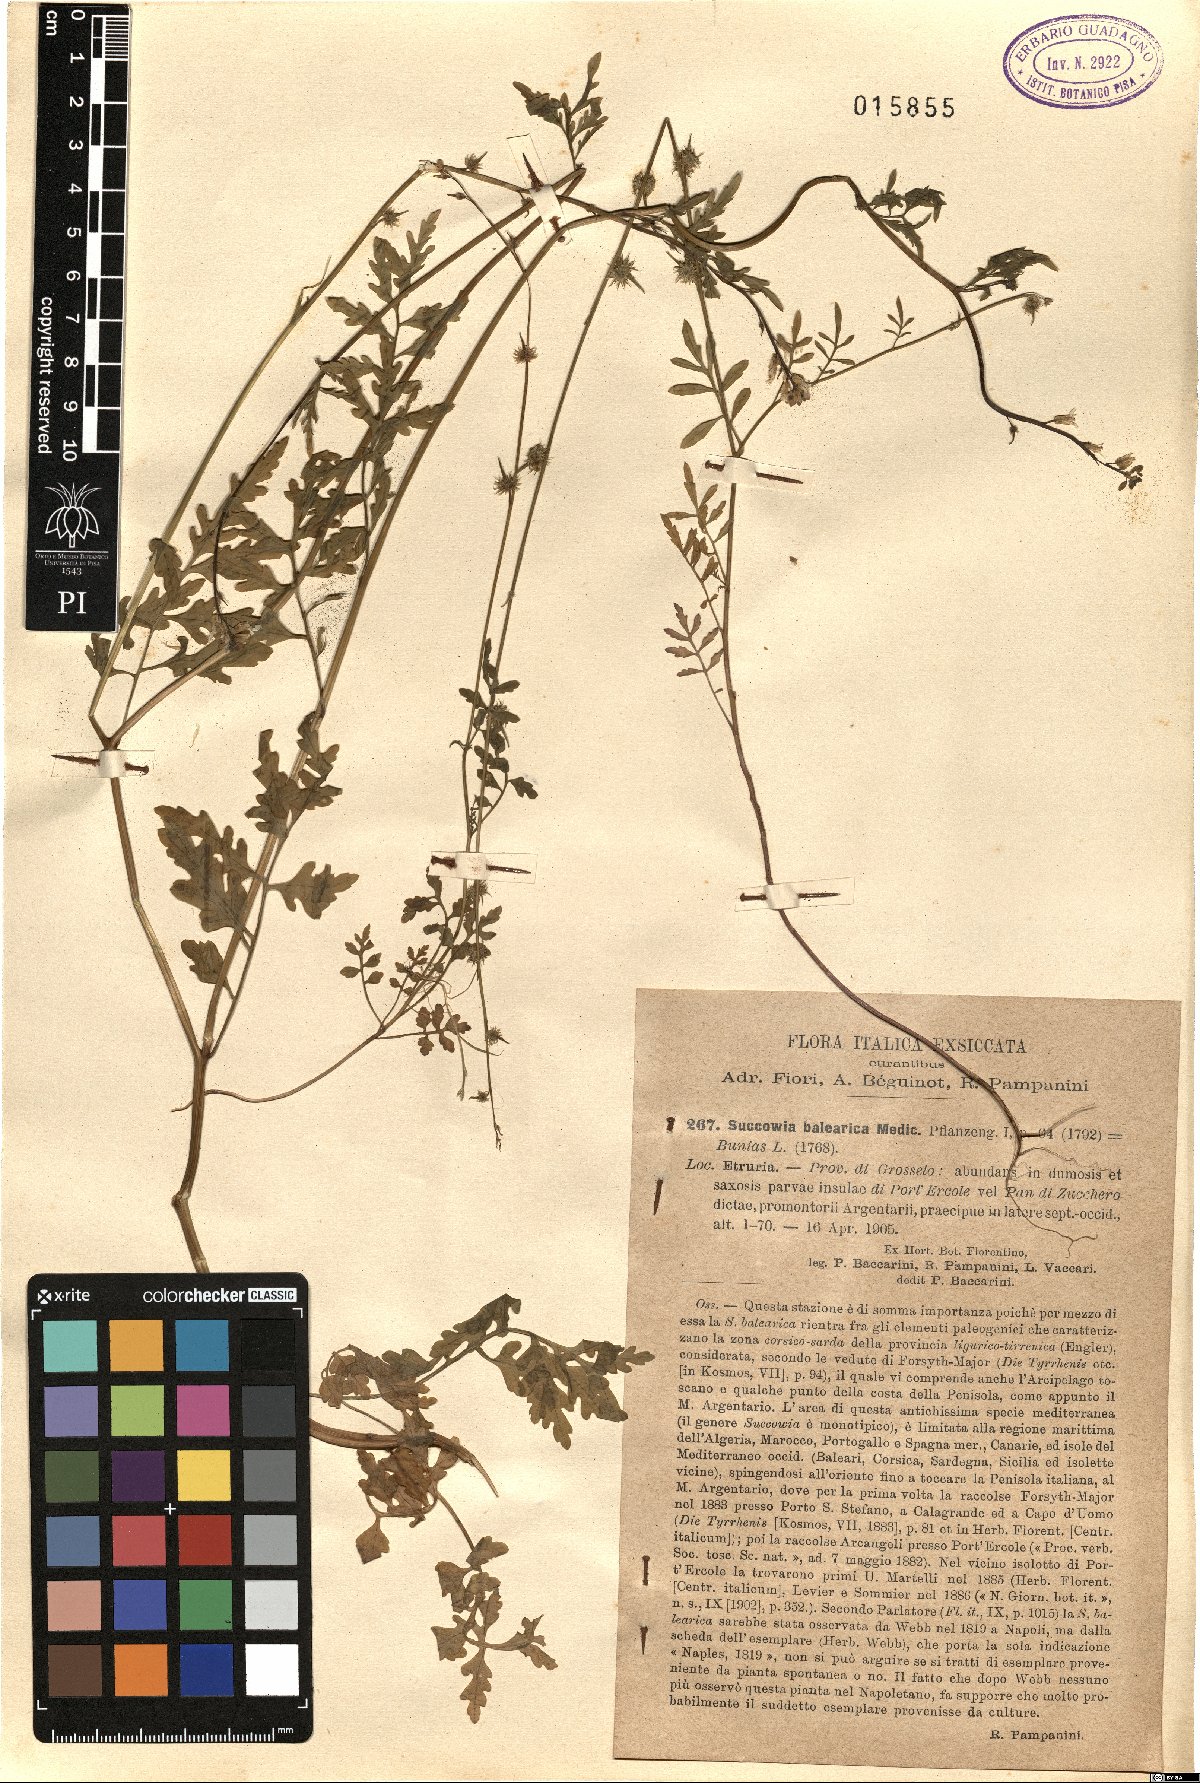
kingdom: Plantae
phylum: Tracheophyta
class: Magnoliopsida
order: Brassicales
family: Brassicaceae
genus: Succowia
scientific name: Succowia balearica
